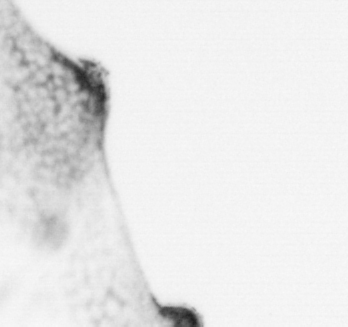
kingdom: Animalia
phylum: Chordata
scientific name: Chordata
